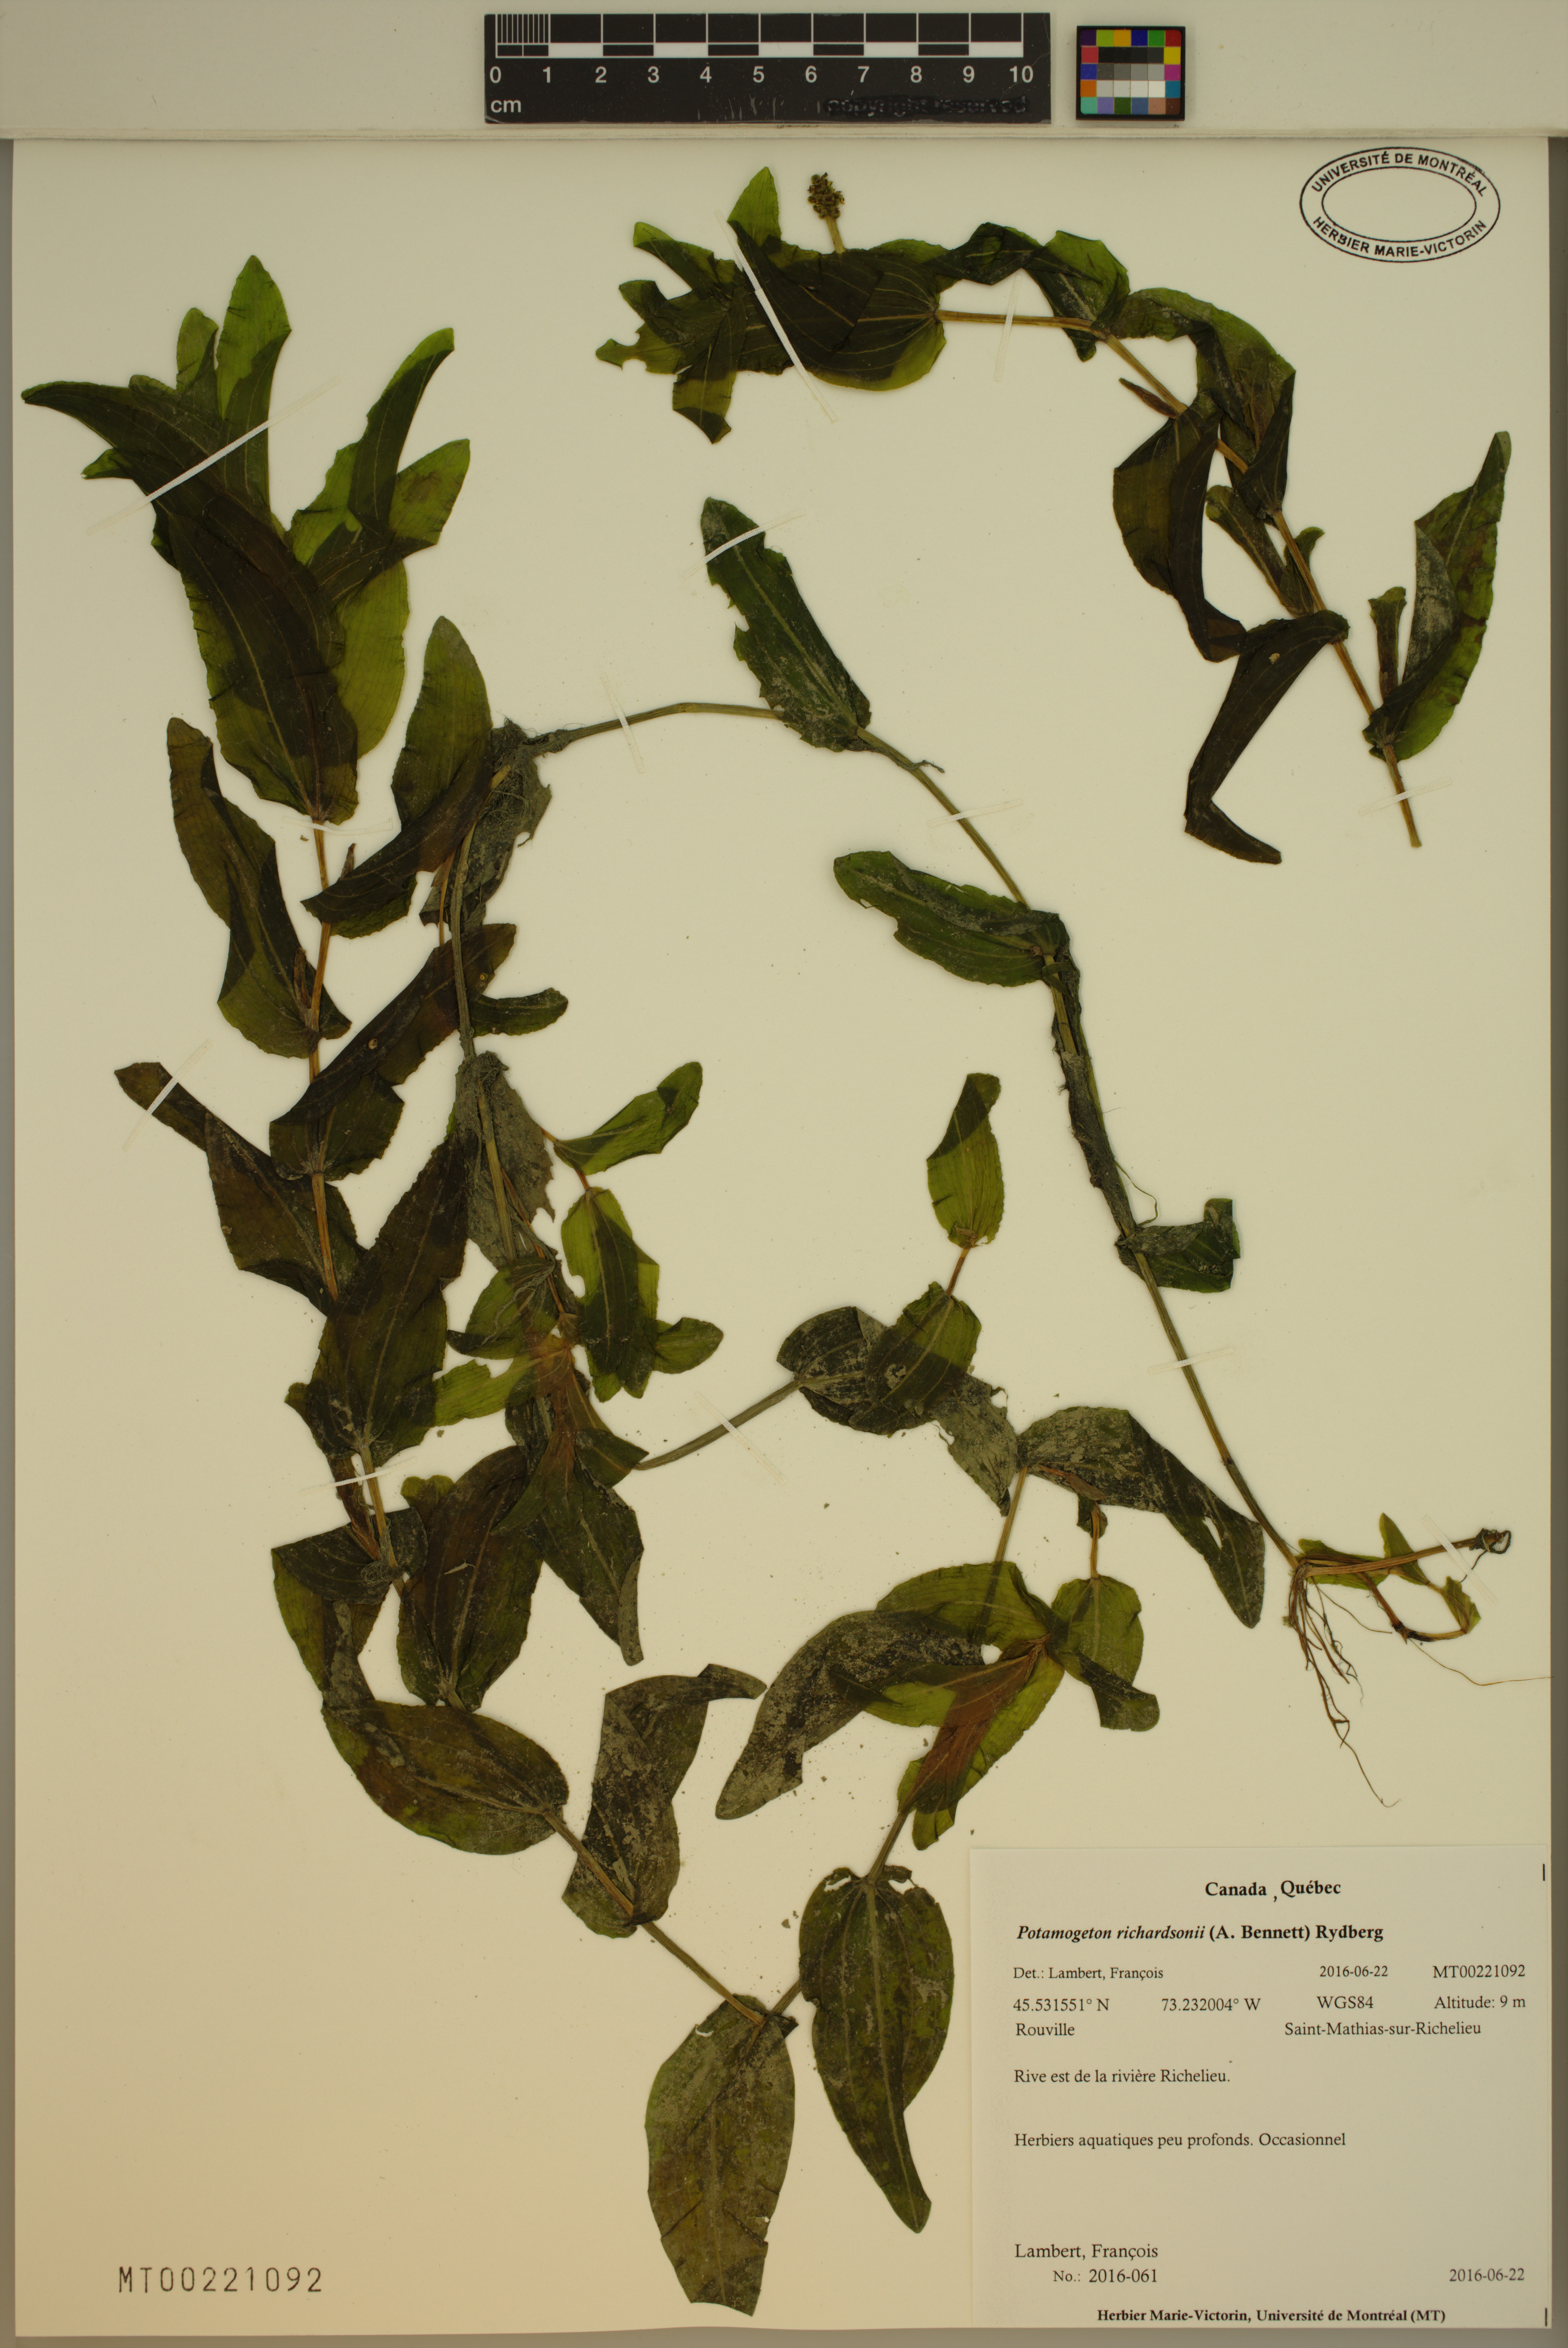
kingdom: Plantae
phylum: Tracheophyta
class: Liliopsida
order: Alismatales
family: Potamogetonaceae
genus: Potamogeton
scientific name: Potamogeton richardsonii
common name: Richardson's pondweed
